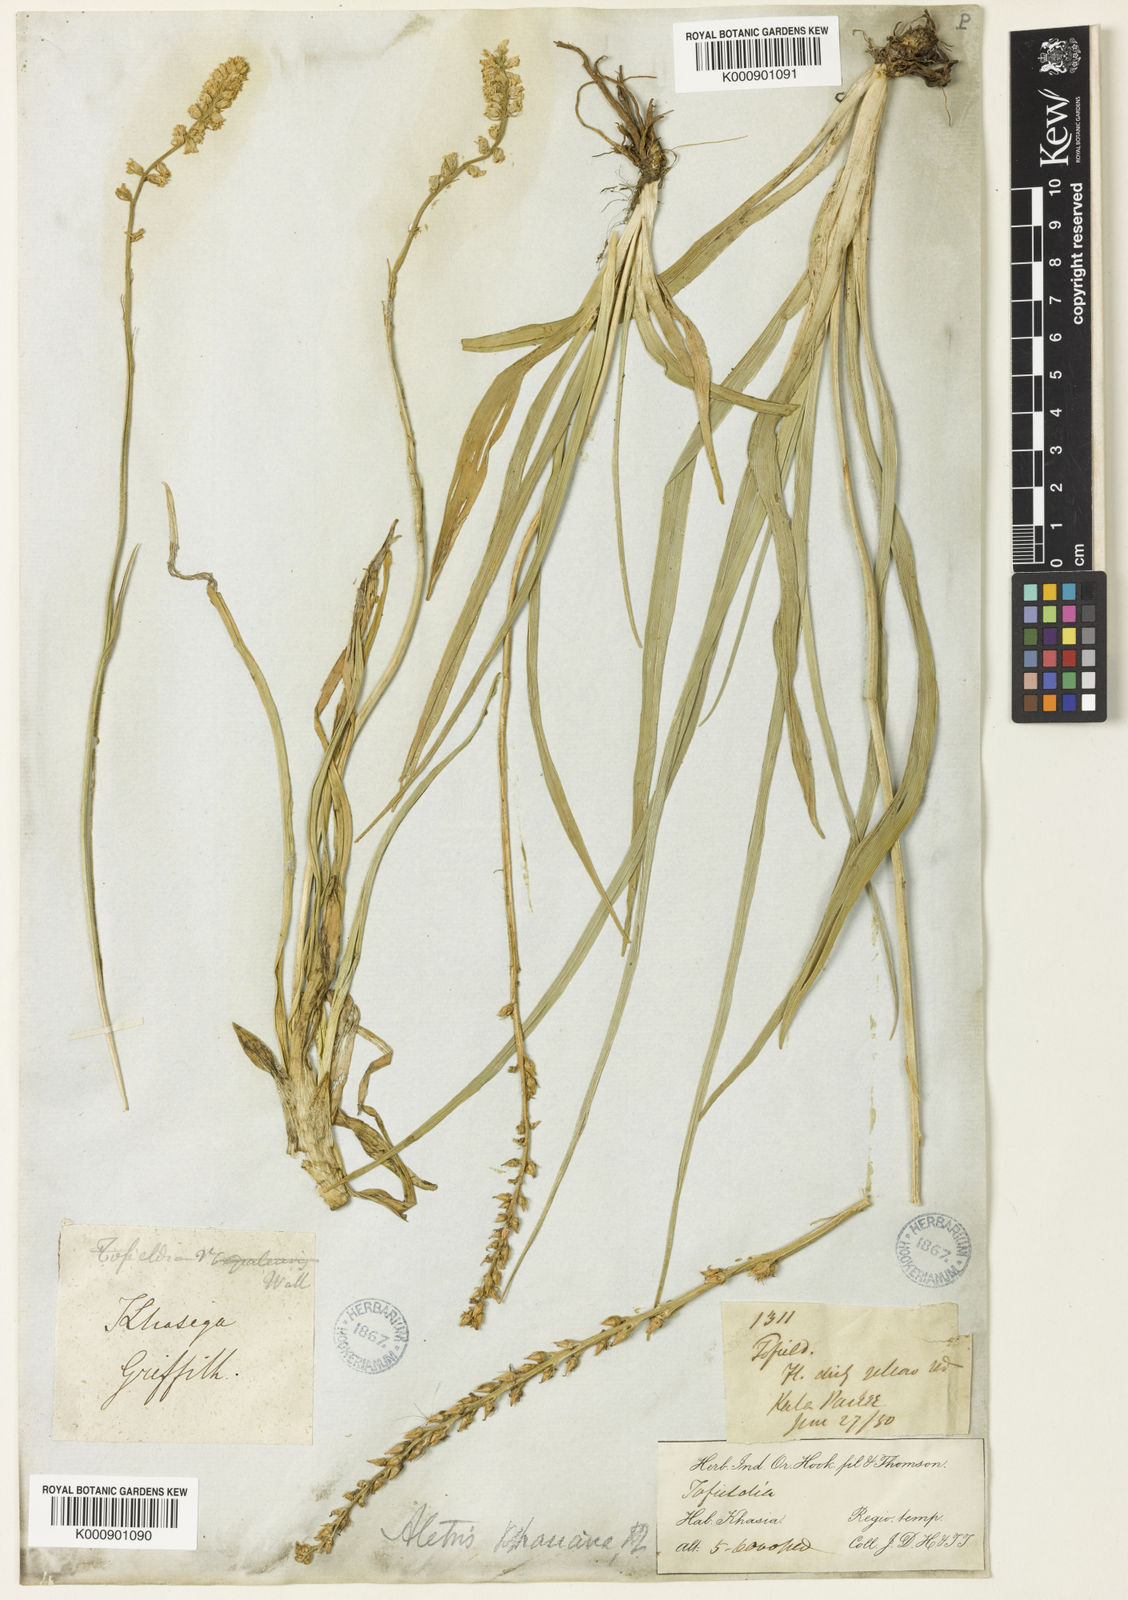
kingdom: Plantae
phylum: Tracheophyta
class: Liliopsida
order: Dioscoreales
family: Nartheciaceae
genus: Aletris
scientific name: Aletris pauciflora
